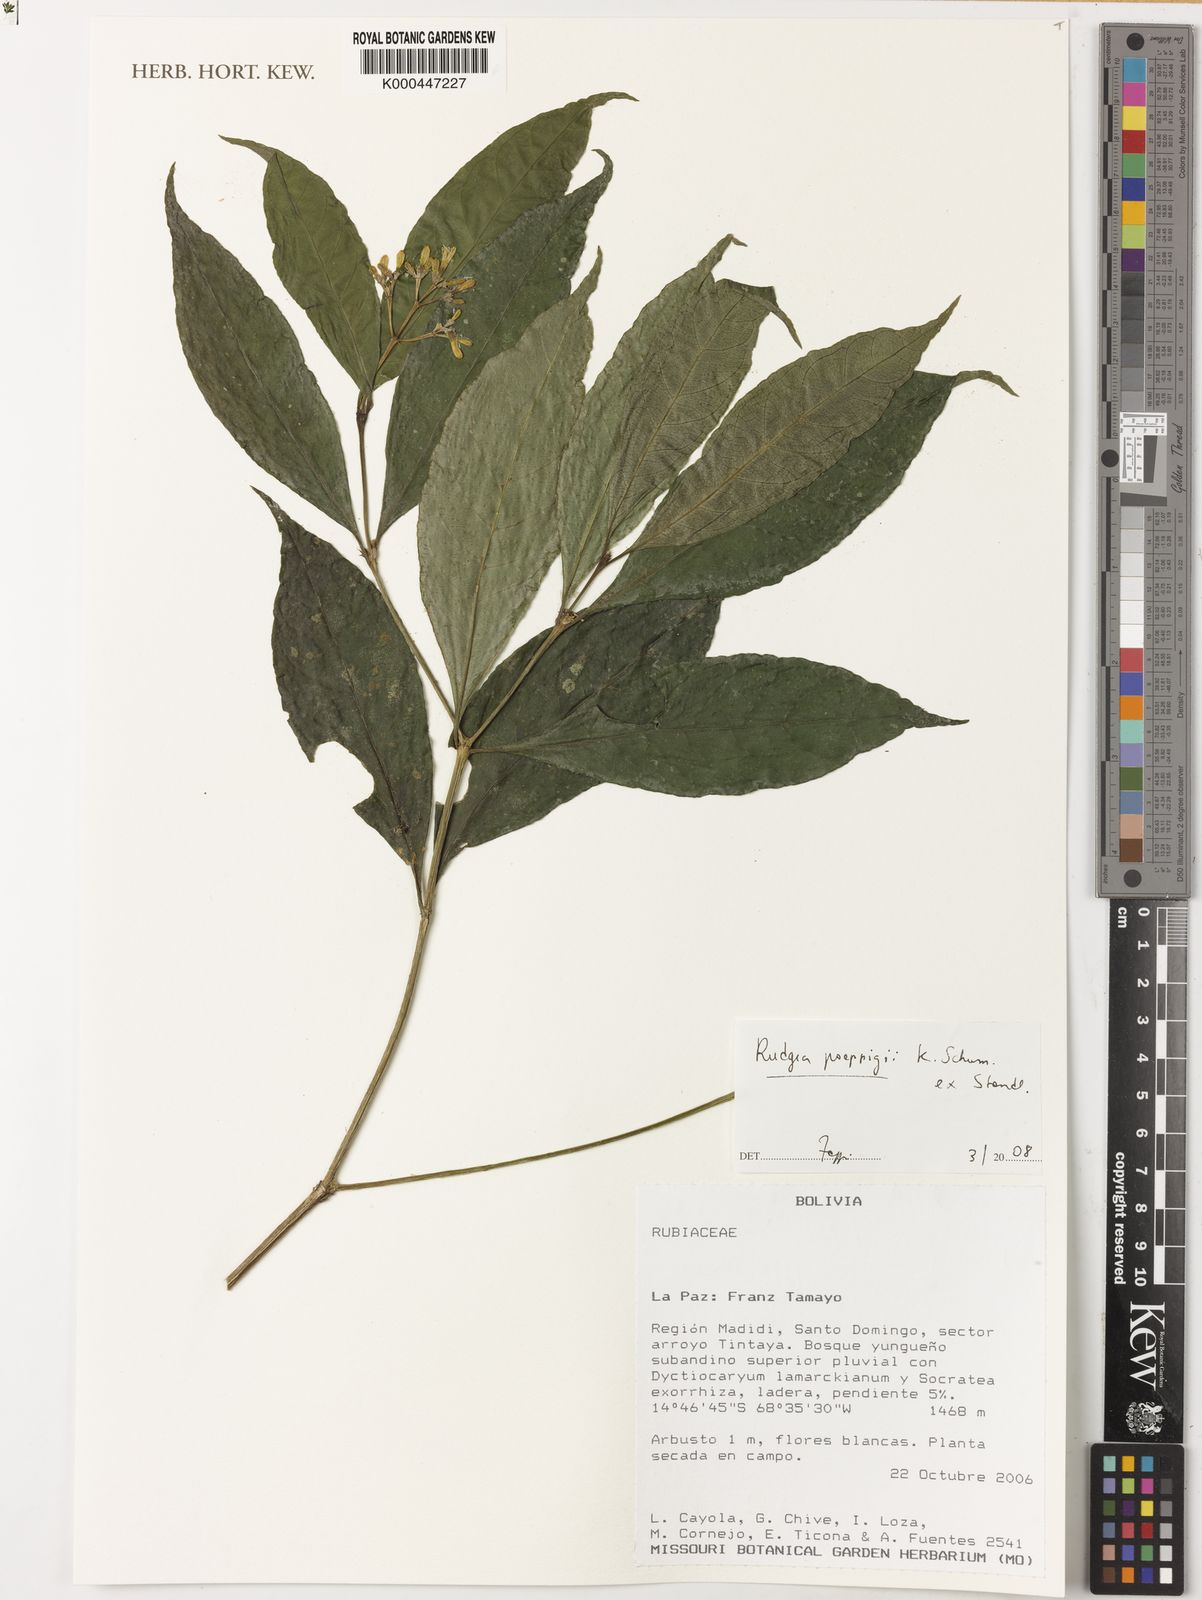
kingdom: Plantae
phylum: Tracheophyta
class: Magnoliopsida
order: Gentianales
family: Rubiaceae
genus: Rudgea
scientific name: Rudgea poeppigii
